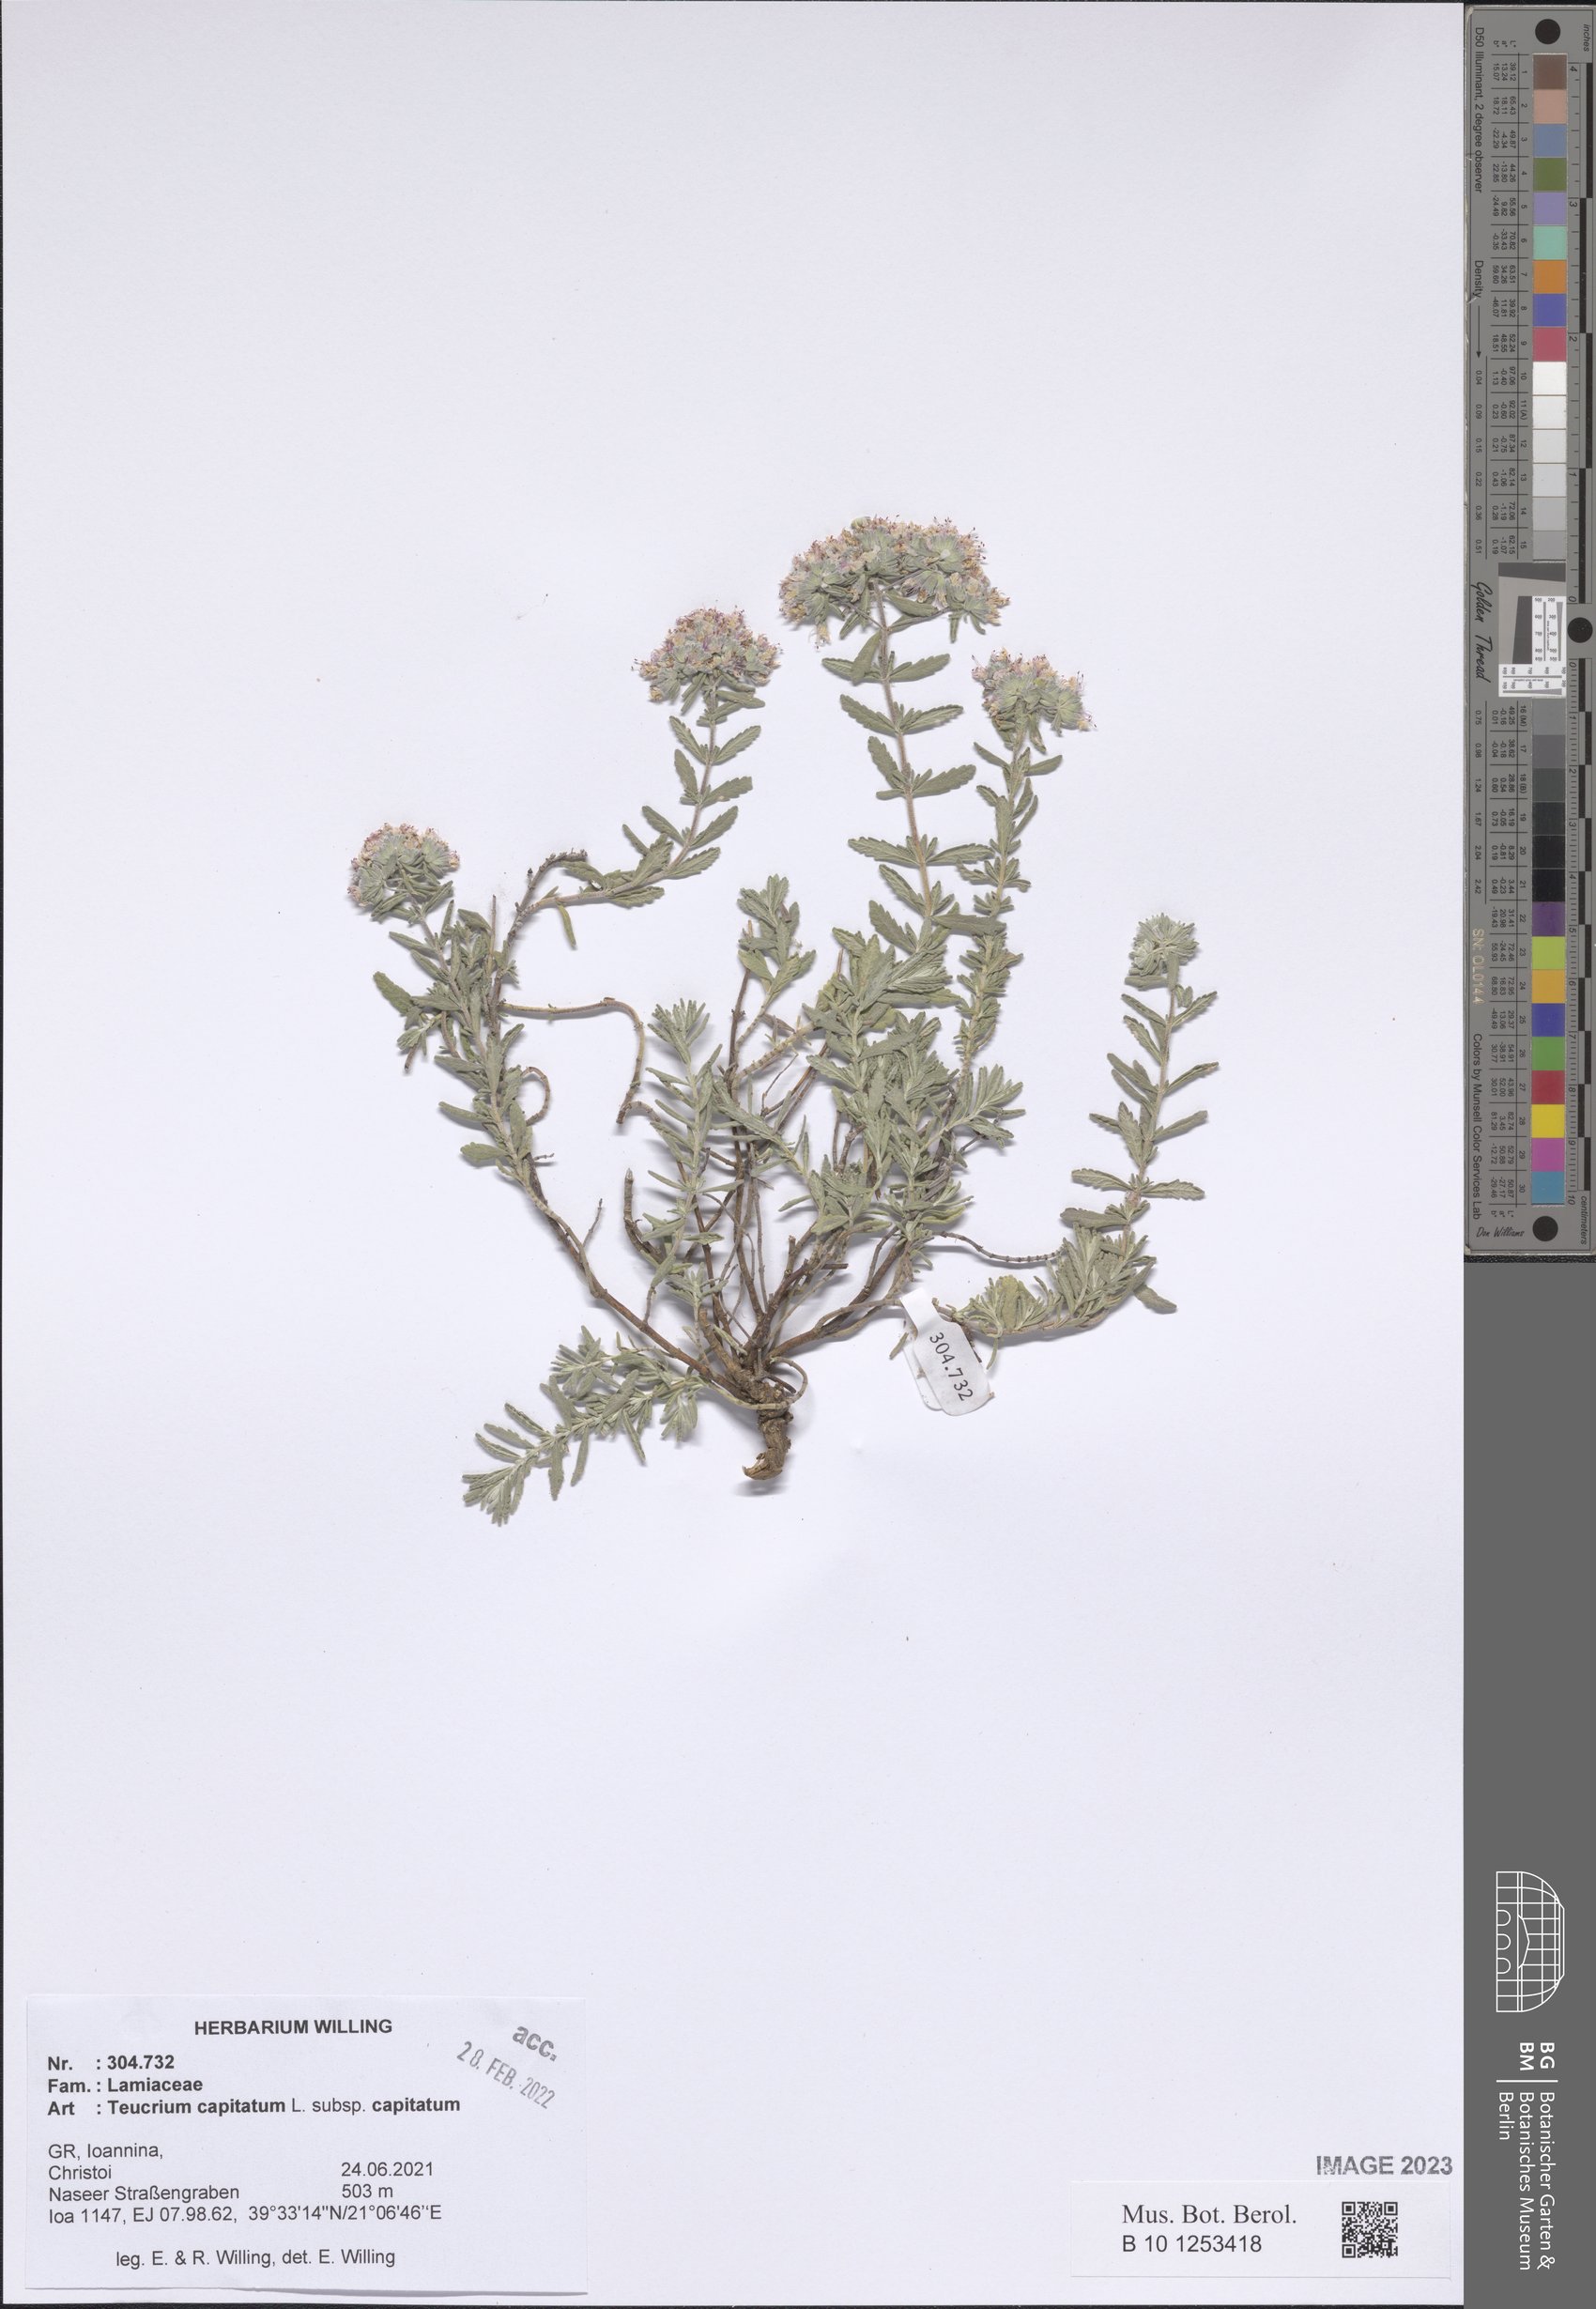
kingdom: Plantae
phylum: Tracheophyta
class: Magnoliopsida
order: Lamiales
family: Lamiaceae
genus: Teucrium
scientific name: Teucrium capitatum
